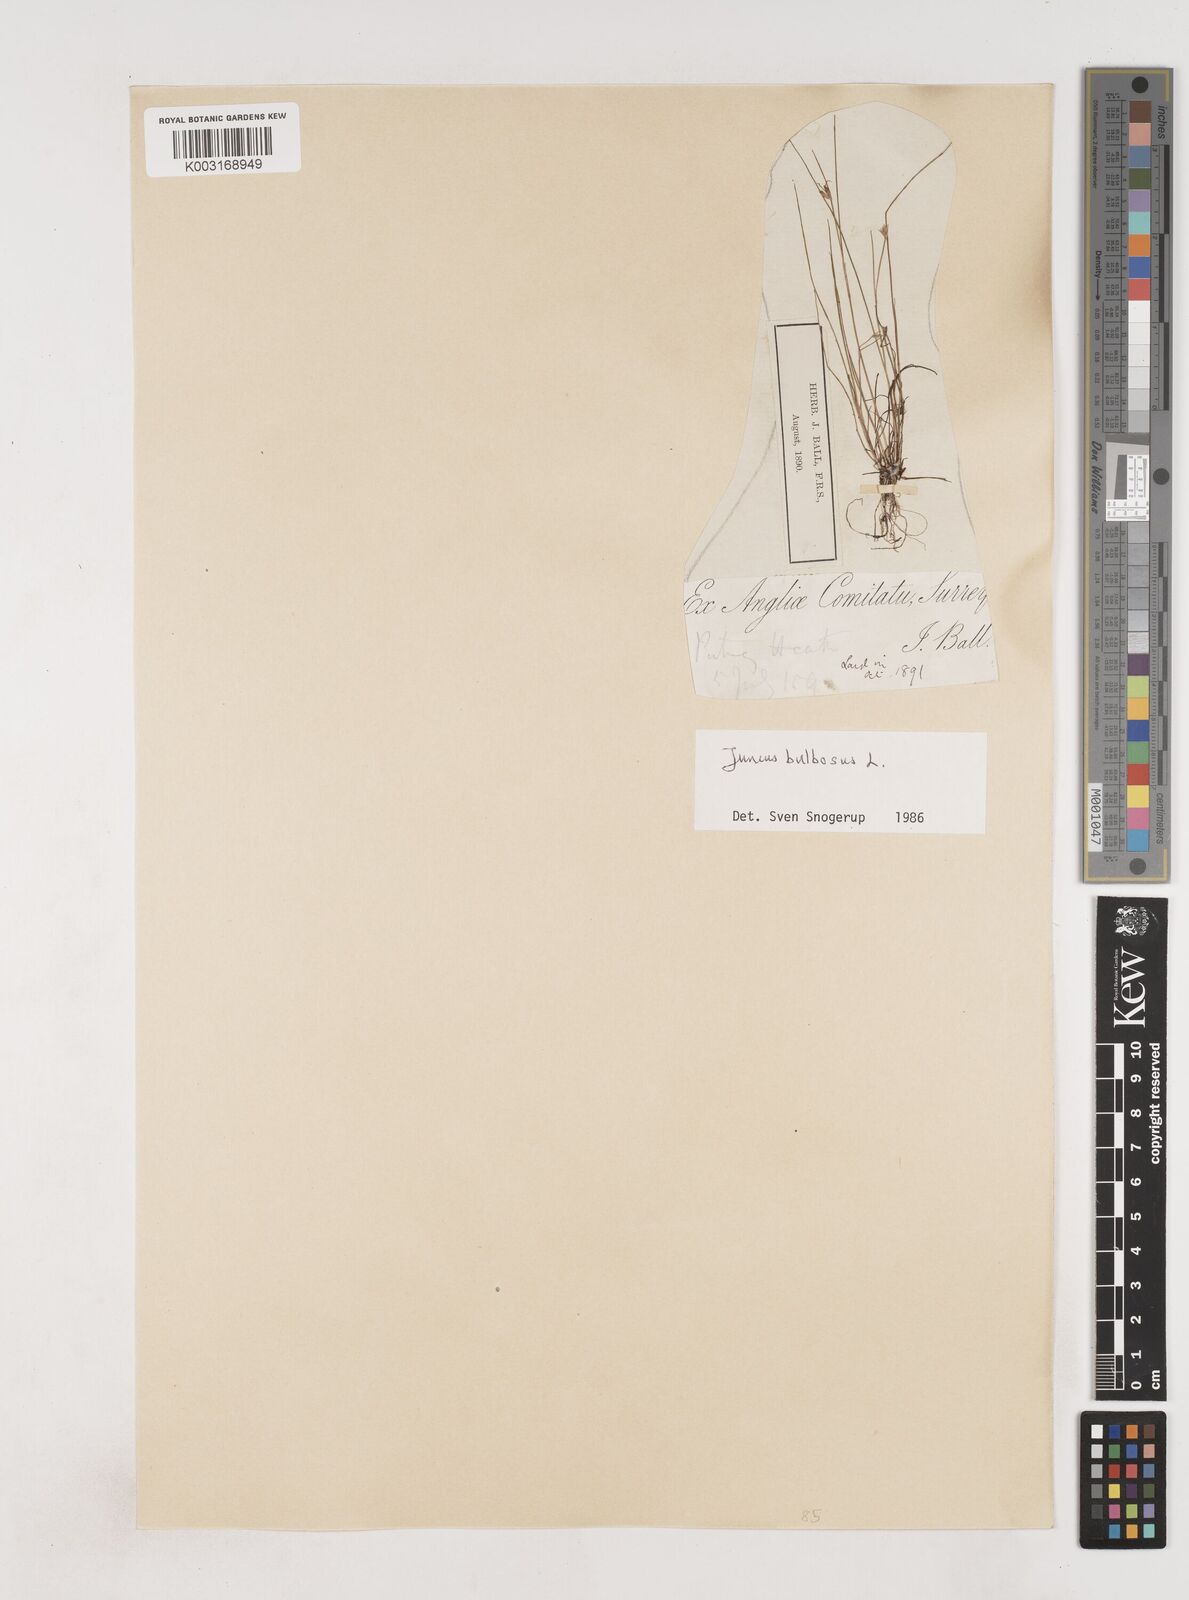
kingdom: Plantae
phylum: Tracheophyta
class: Liliopsida
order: Poales
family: Juncaceae
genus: Juncus
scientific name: Juncus bulbosus
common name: Bulbous rush
